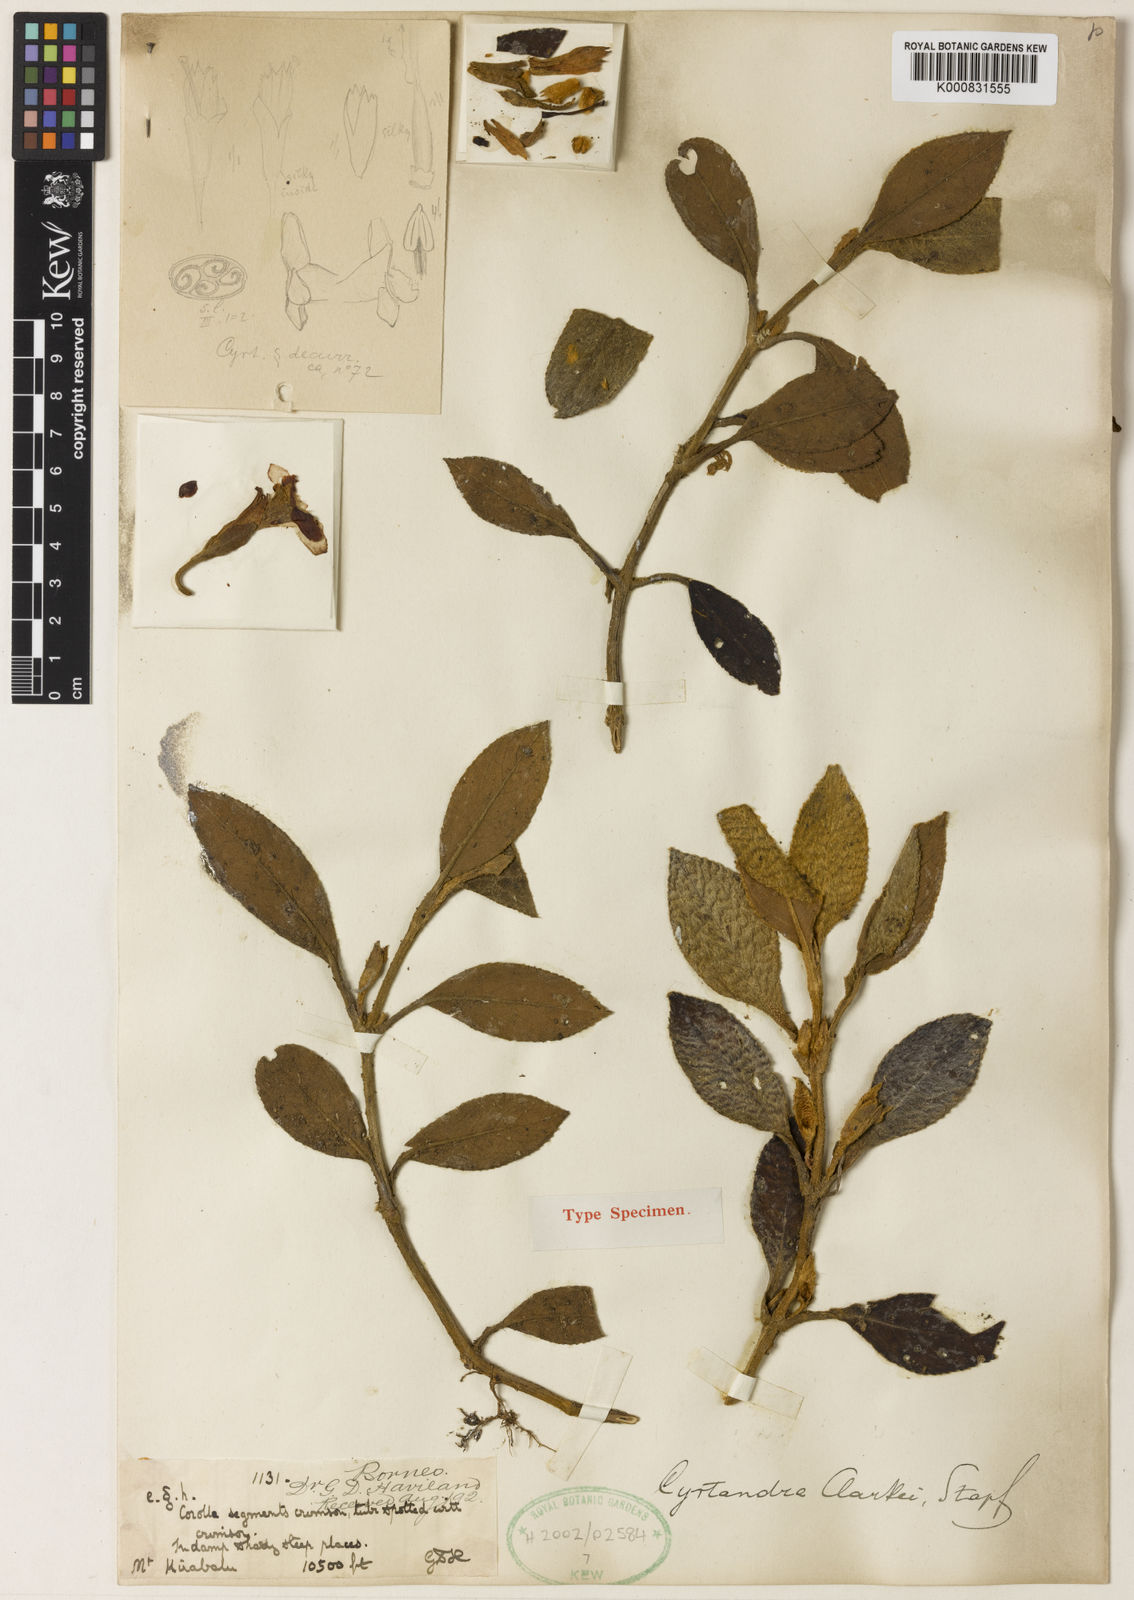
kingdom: Plantae
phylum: Tracheophyta
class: Magnoliopsida
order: Lamiales
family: Gesneriaceae
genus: Cyrtandra
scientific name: Cyrtandra clarkei
